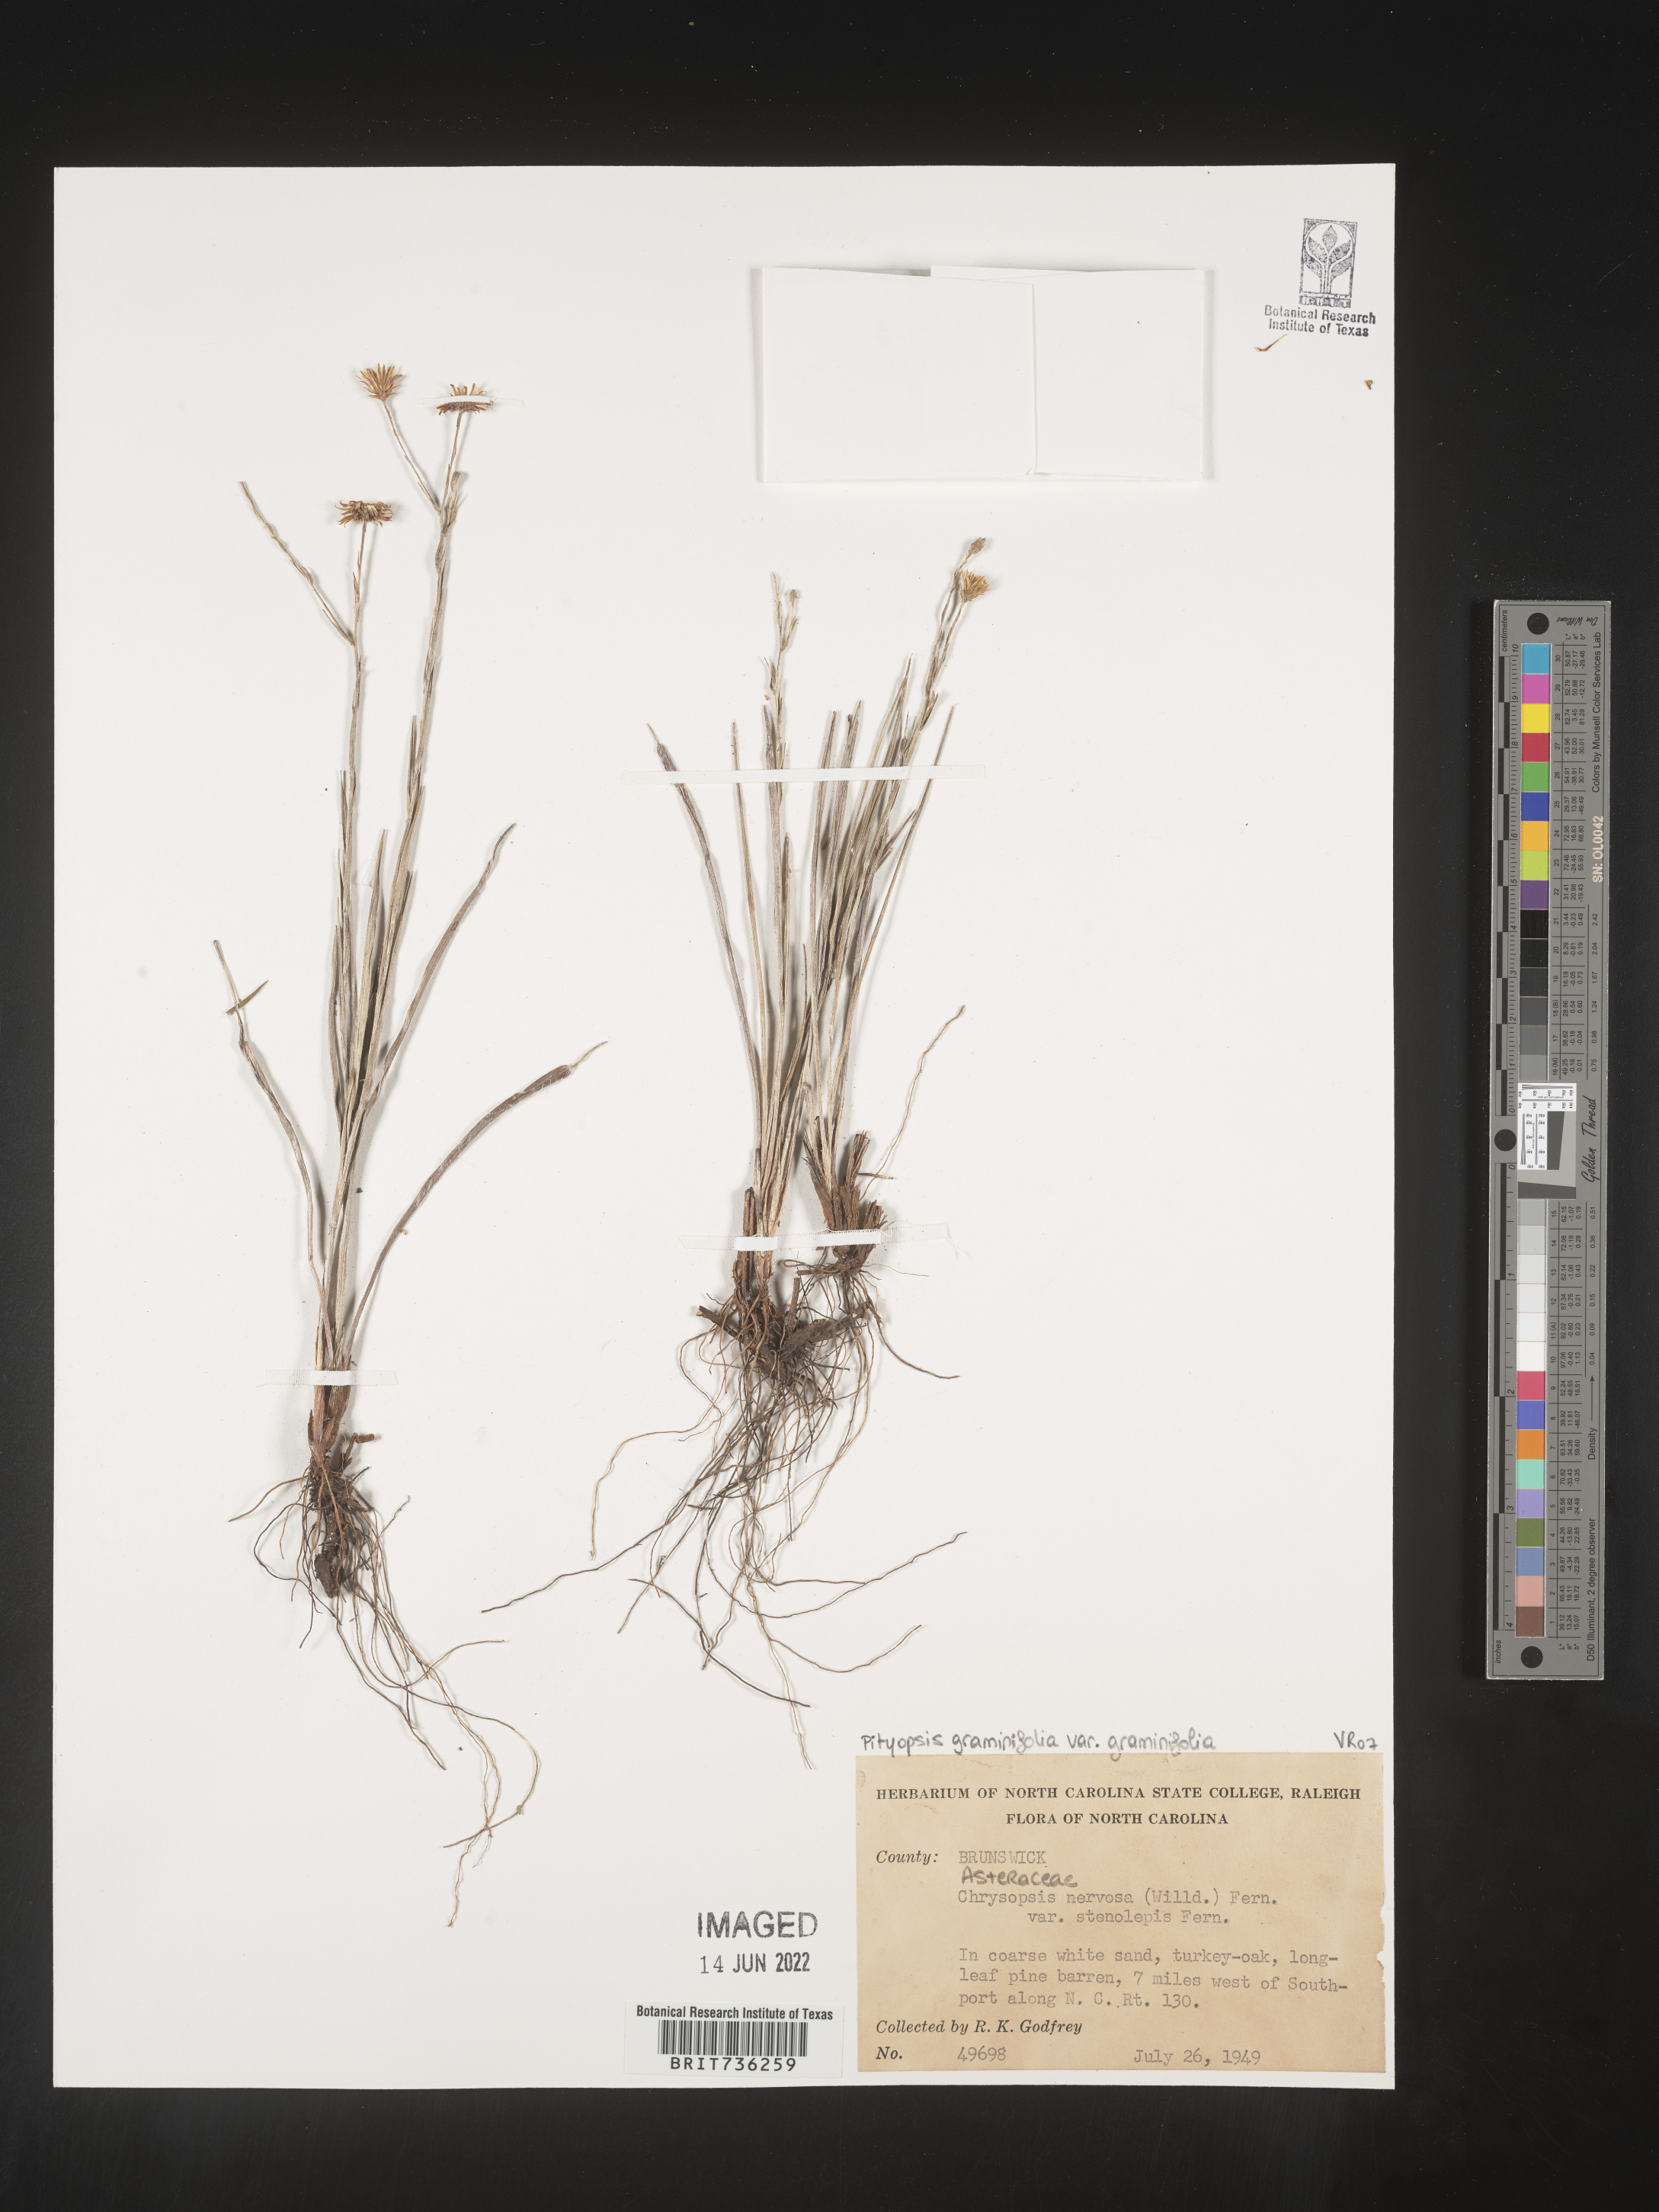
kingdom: Plantae
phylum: Tracheophyta
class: Magnoliopsida
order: Asterales
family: Asteraceae
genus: Pityopsis
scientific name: Pityopsis graminifolia
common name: Grass-leaf golden-aster
